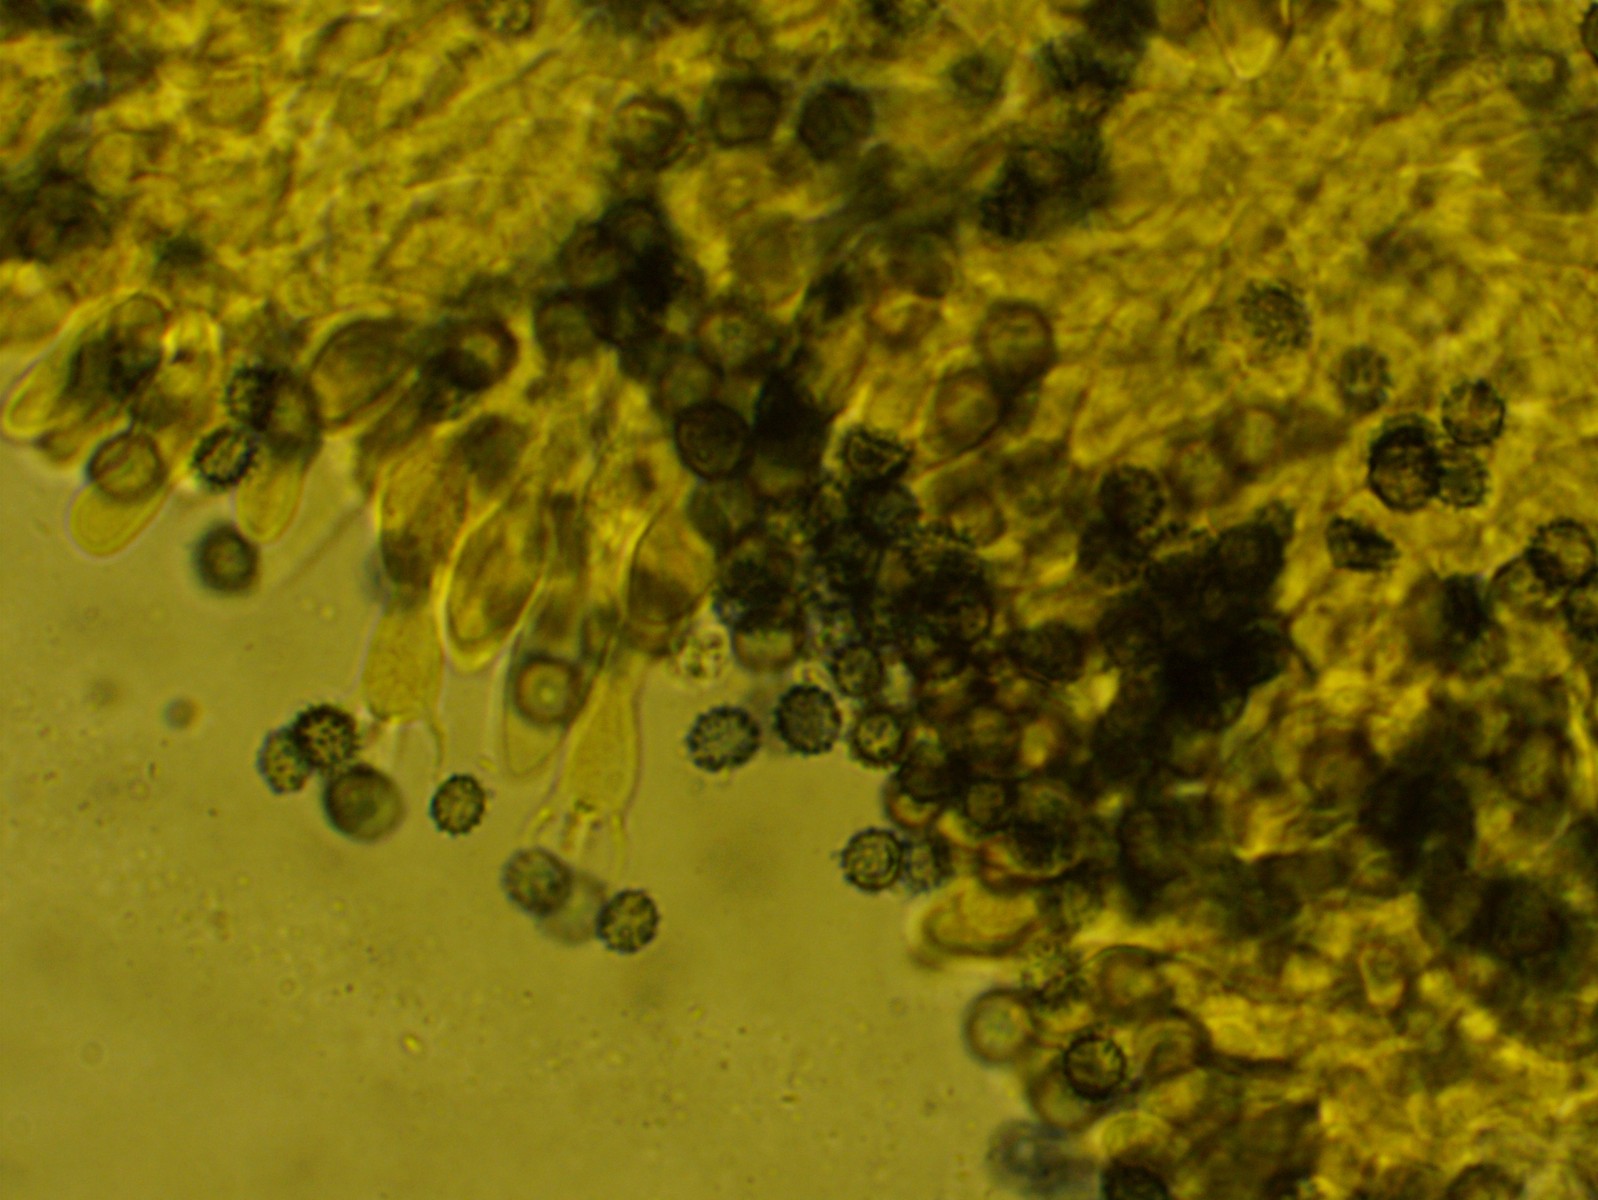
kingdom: Fungi
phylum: Basidiomycota
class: Agaricomycetes
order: Russulales
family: Russulaceae
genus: Boidinia
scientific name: Boidinia furfuracea
